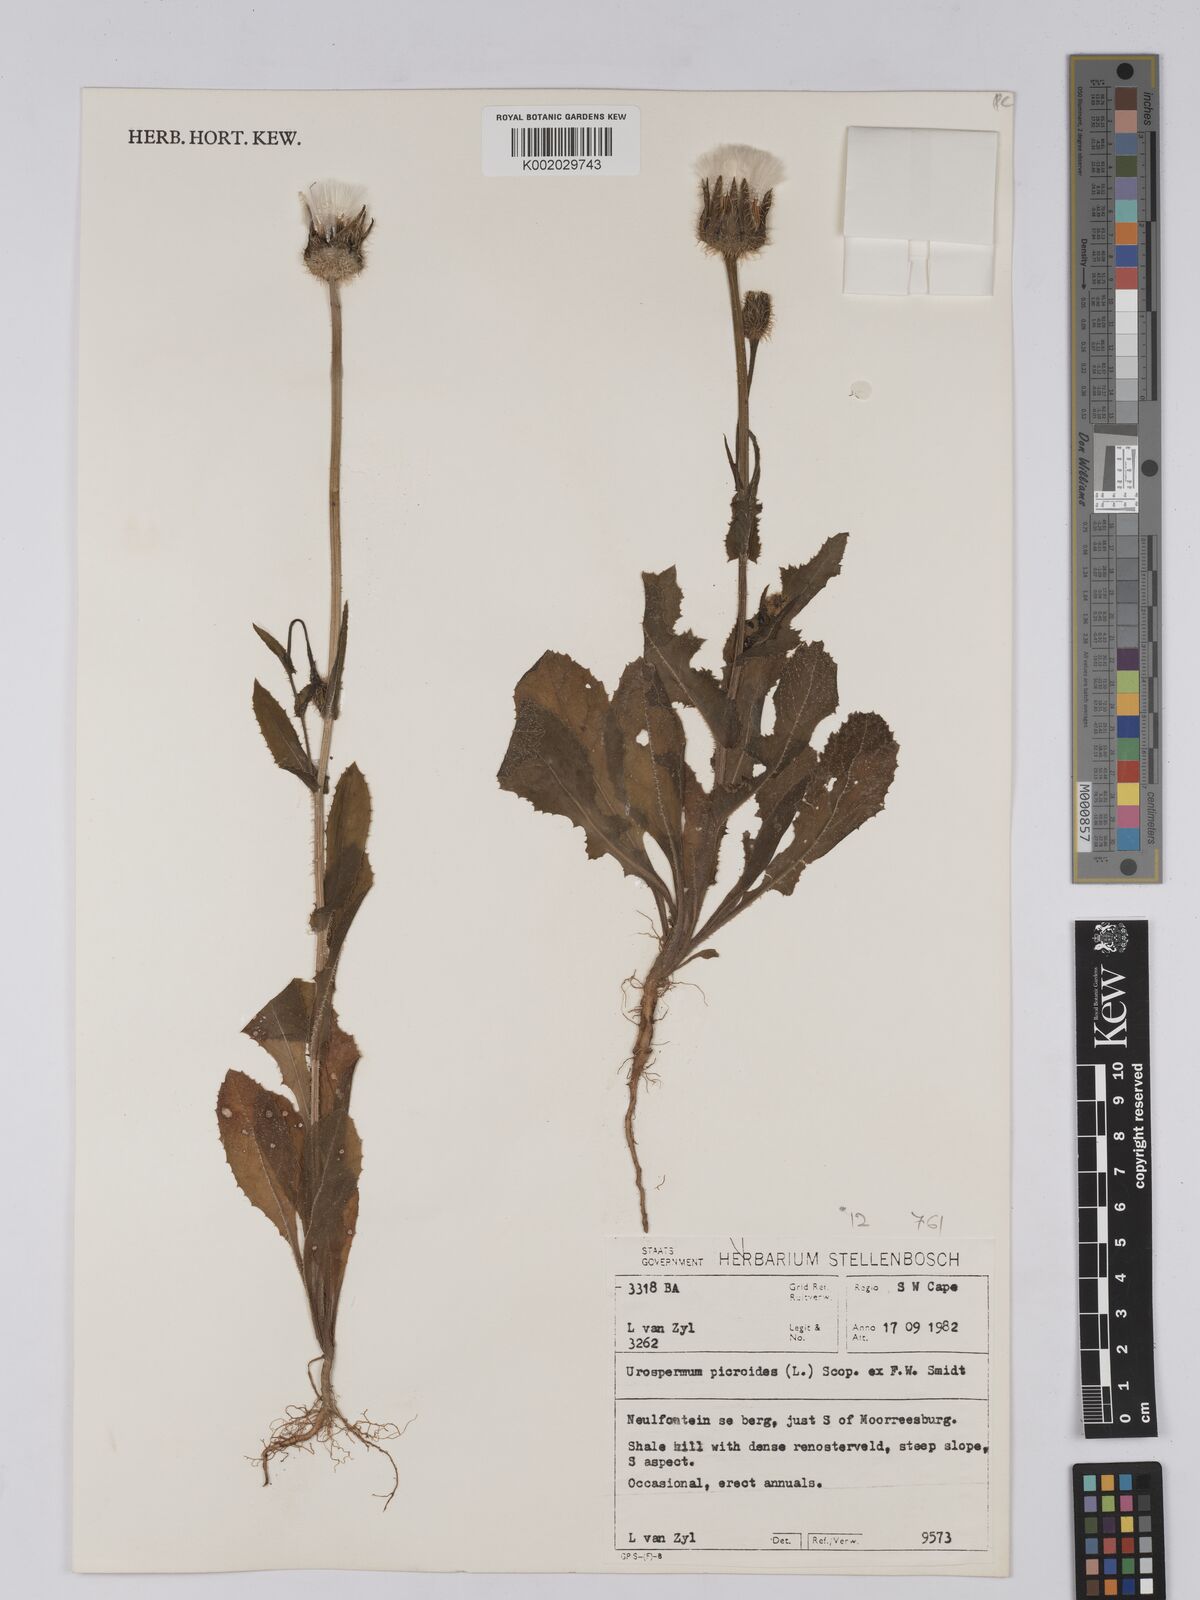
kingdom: Plantae
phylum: Tracheophyta
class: Magnoliopsida
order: Asterales
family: Asteraceae
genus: Urospermum
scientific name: Urospermum picroides
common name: False hawkbit
